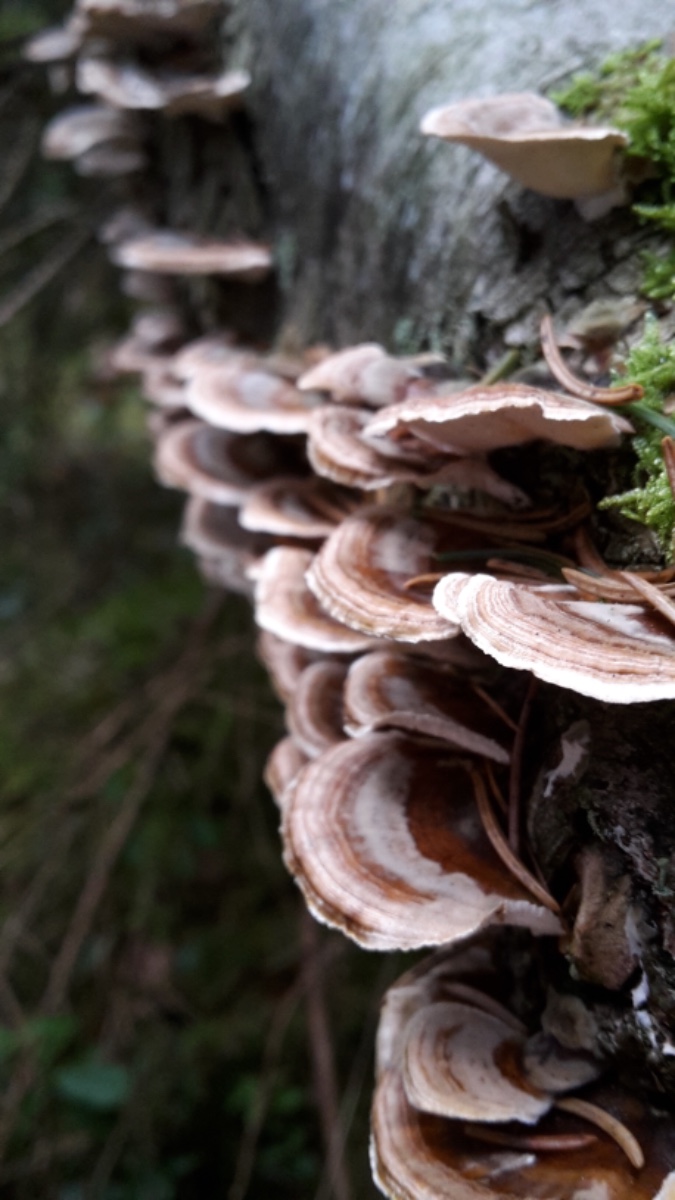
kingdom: Fungi
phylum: Basidiomycota
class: Agaricomycetes
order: Polyporales
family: Polyporaceae
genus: Trametes
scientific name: Trametes versicolor
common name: broget læderporesvamp
